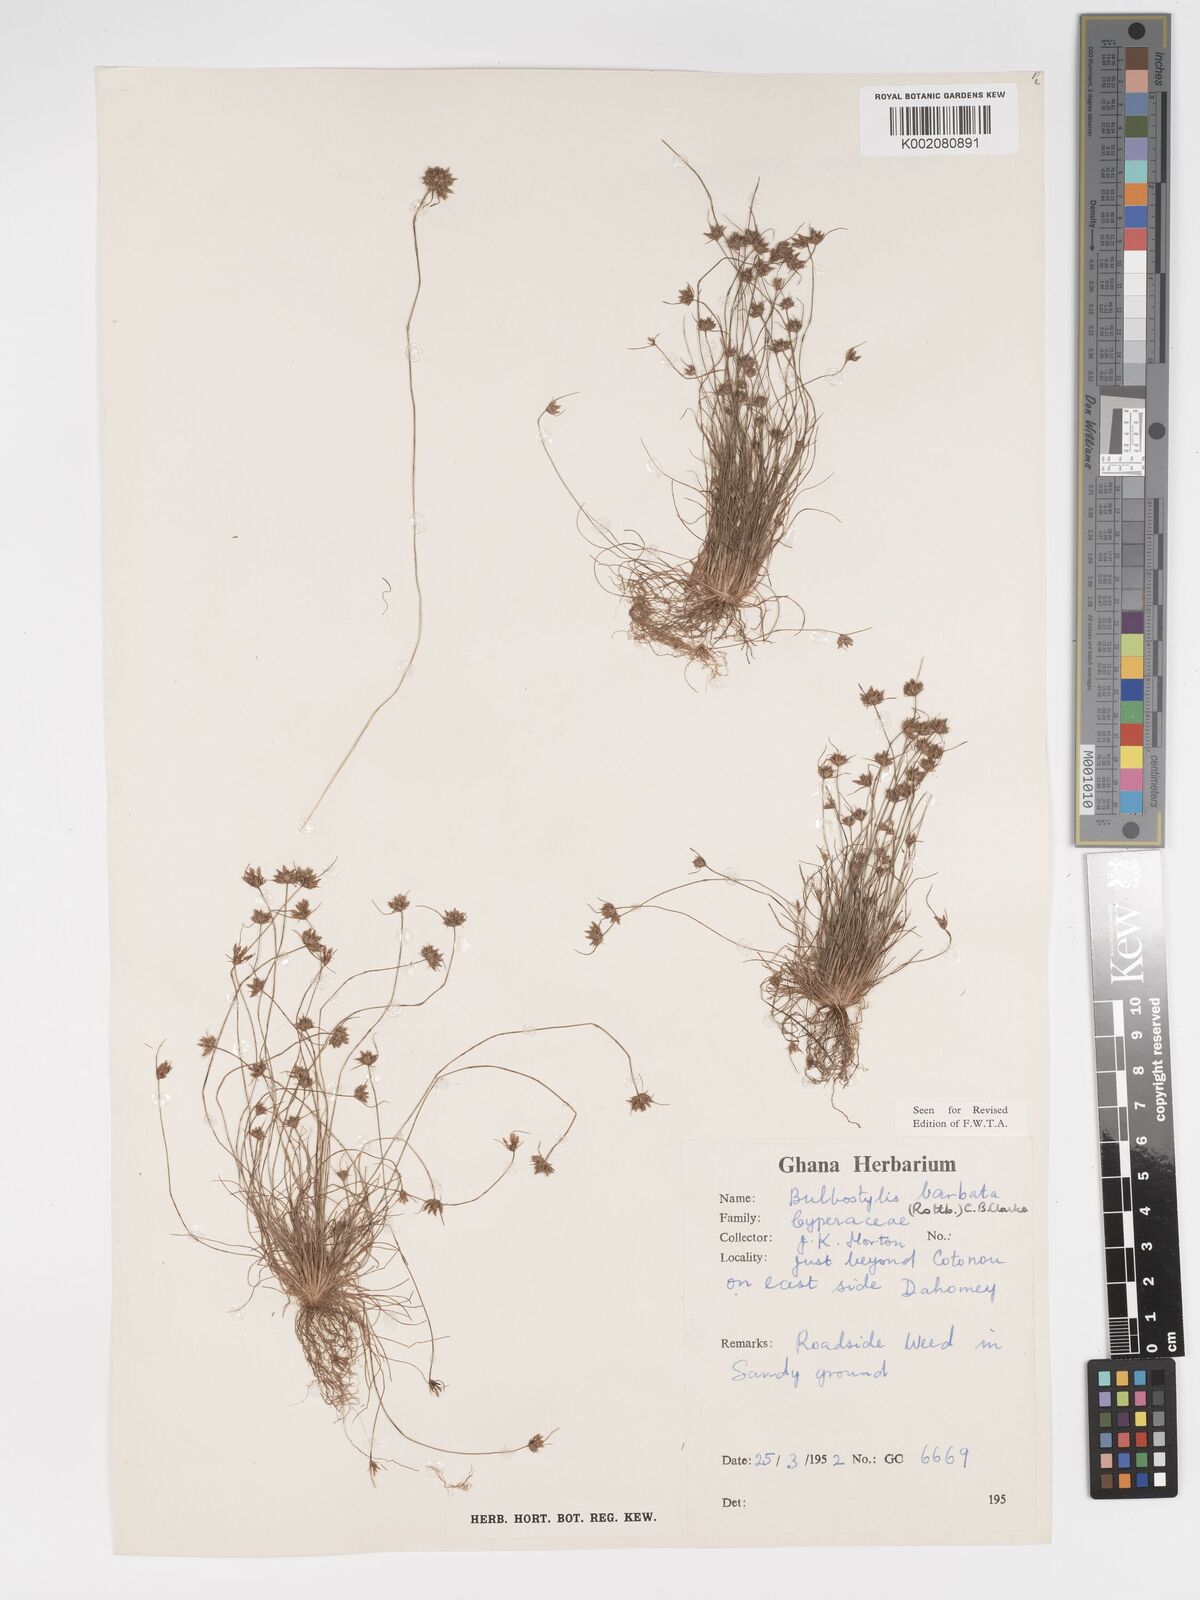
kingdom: Plantae
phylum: Tracheophyta
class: Liliopsida
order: Poales
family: Cyperaceae
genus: Bulbostylis
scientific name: Bulbostylis barbata
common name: Watergrass
